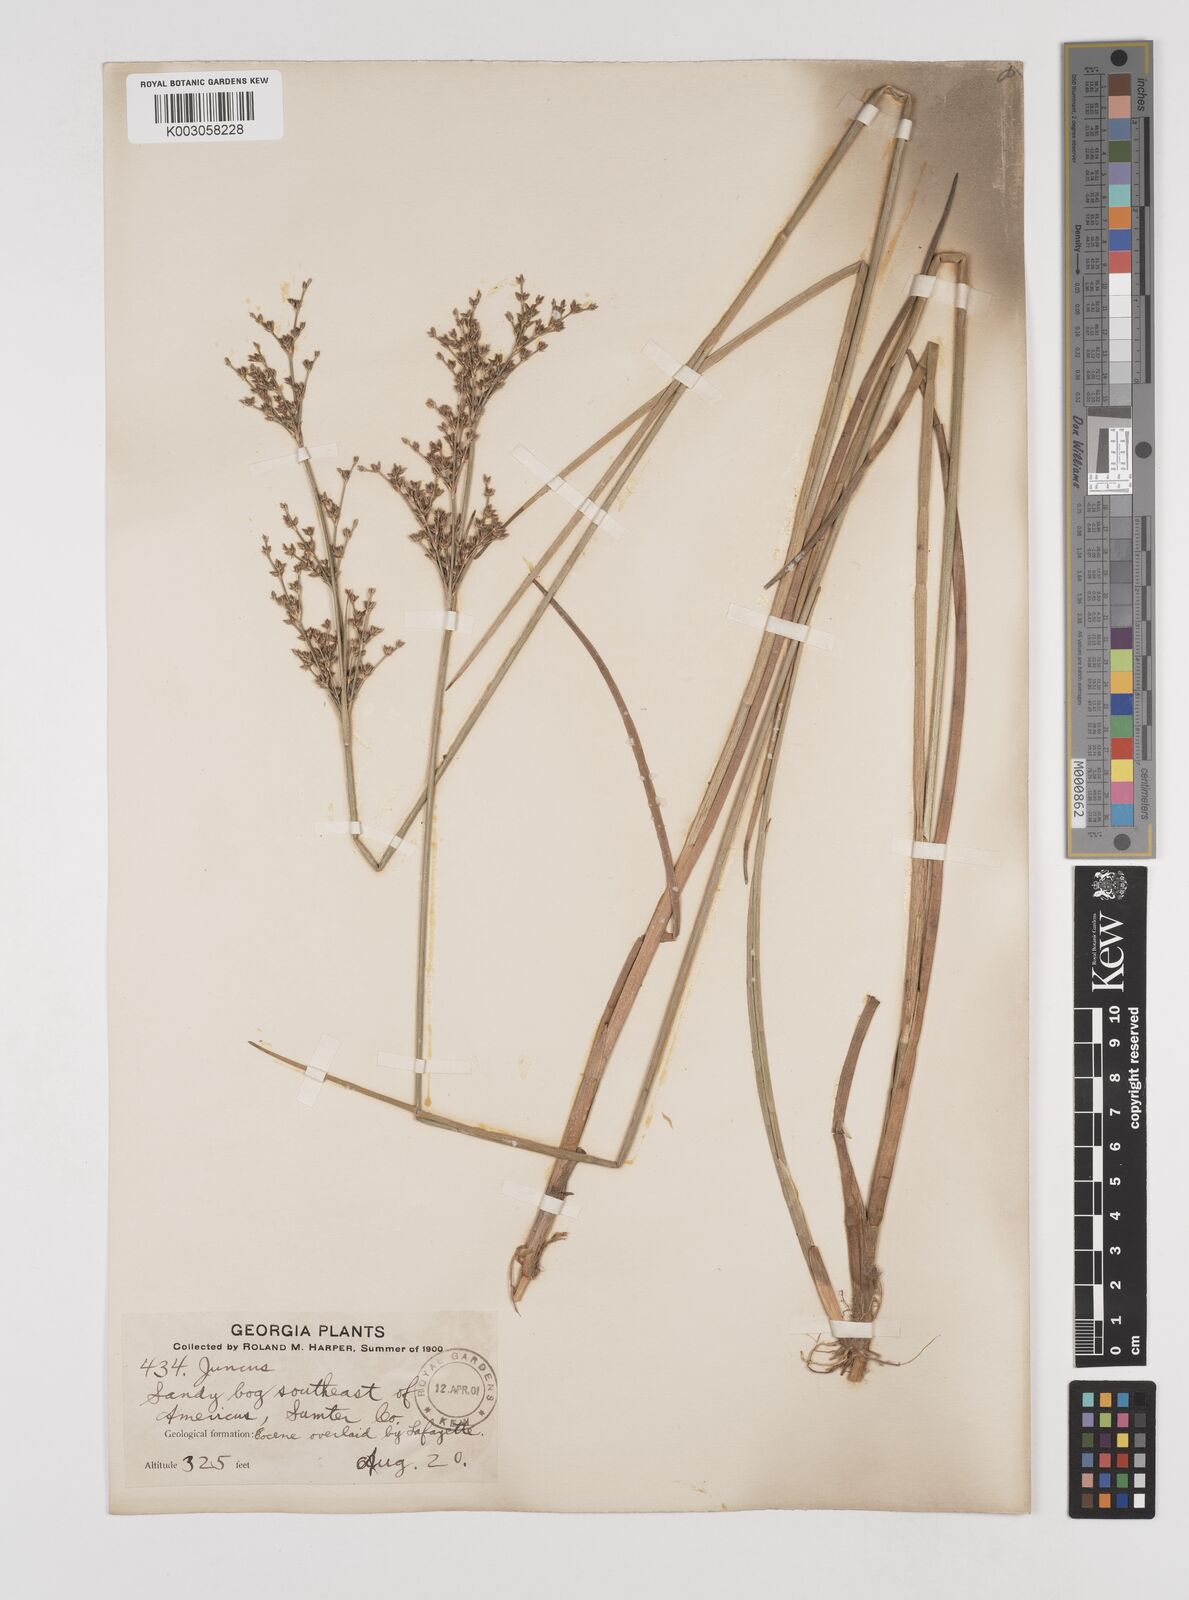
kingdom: Plantae
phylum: Tracheophyta
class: Liliopsida
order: Poales
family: Juncaceae
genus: Juncus
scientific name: Juncus
